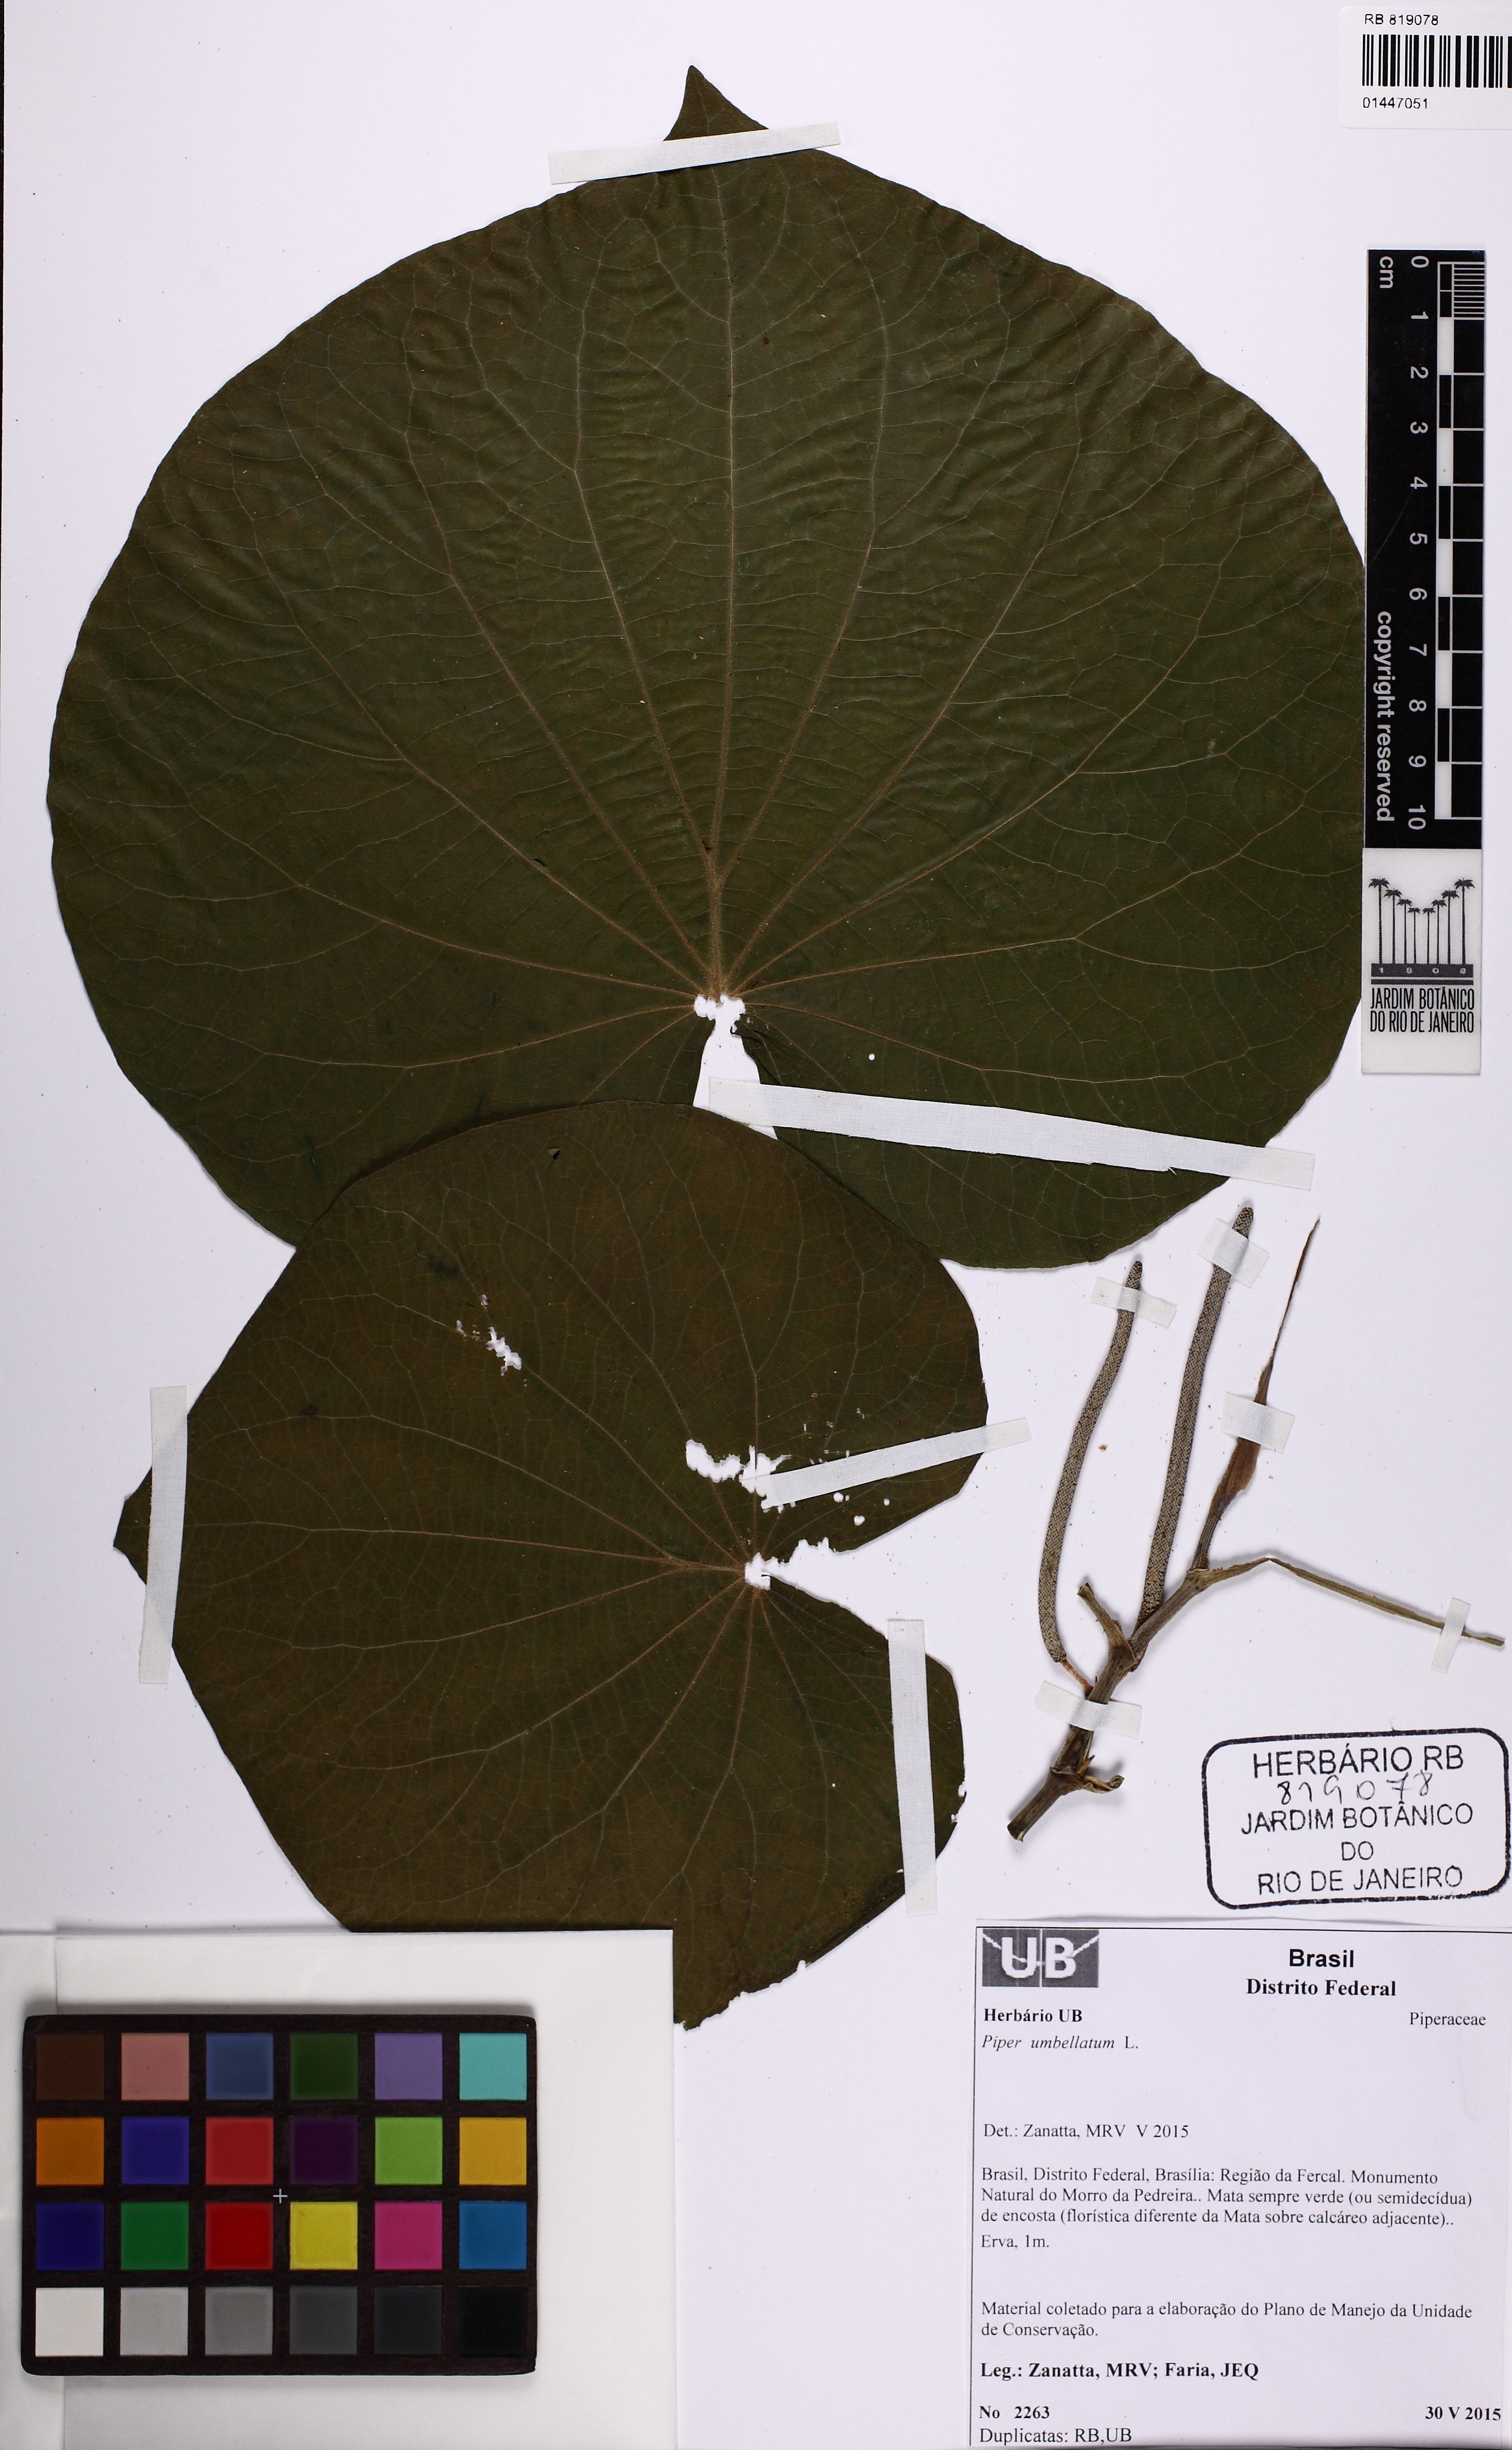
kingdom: Plantae
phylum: Tracheophyta
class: Magnoliopsida
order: Piperales
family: Piperaceae
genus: Piper
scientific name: Piper umbellatum
